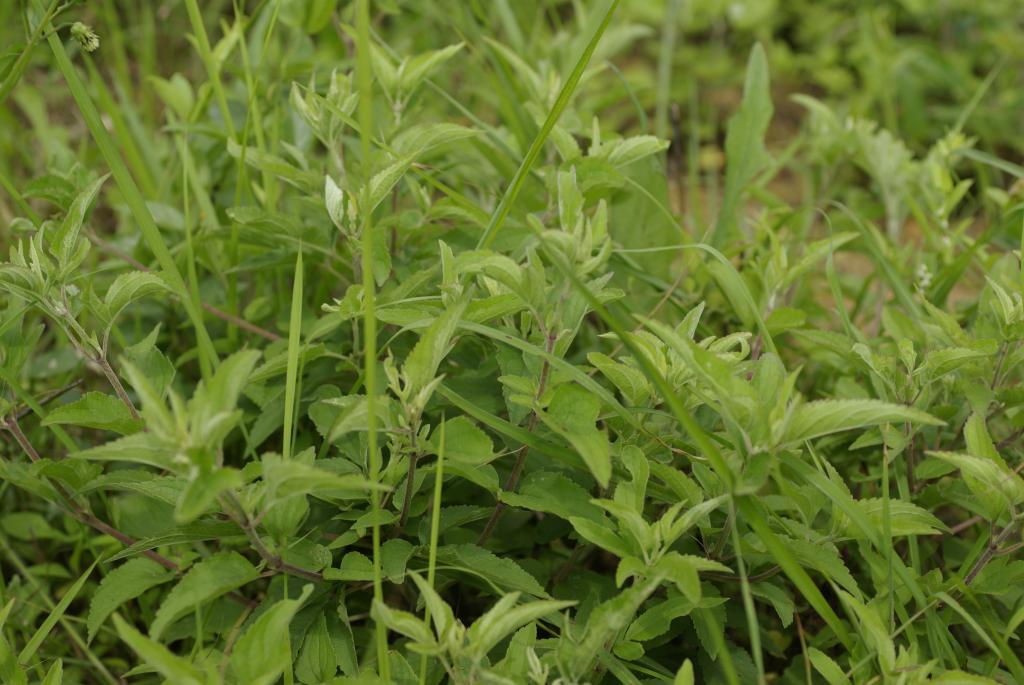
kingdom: Plantae
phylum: Tracheophyta
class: Magnoliopsida
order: Asterales
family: Asteraceae
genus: Eupatorium
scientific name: Eupatorium formosanum
